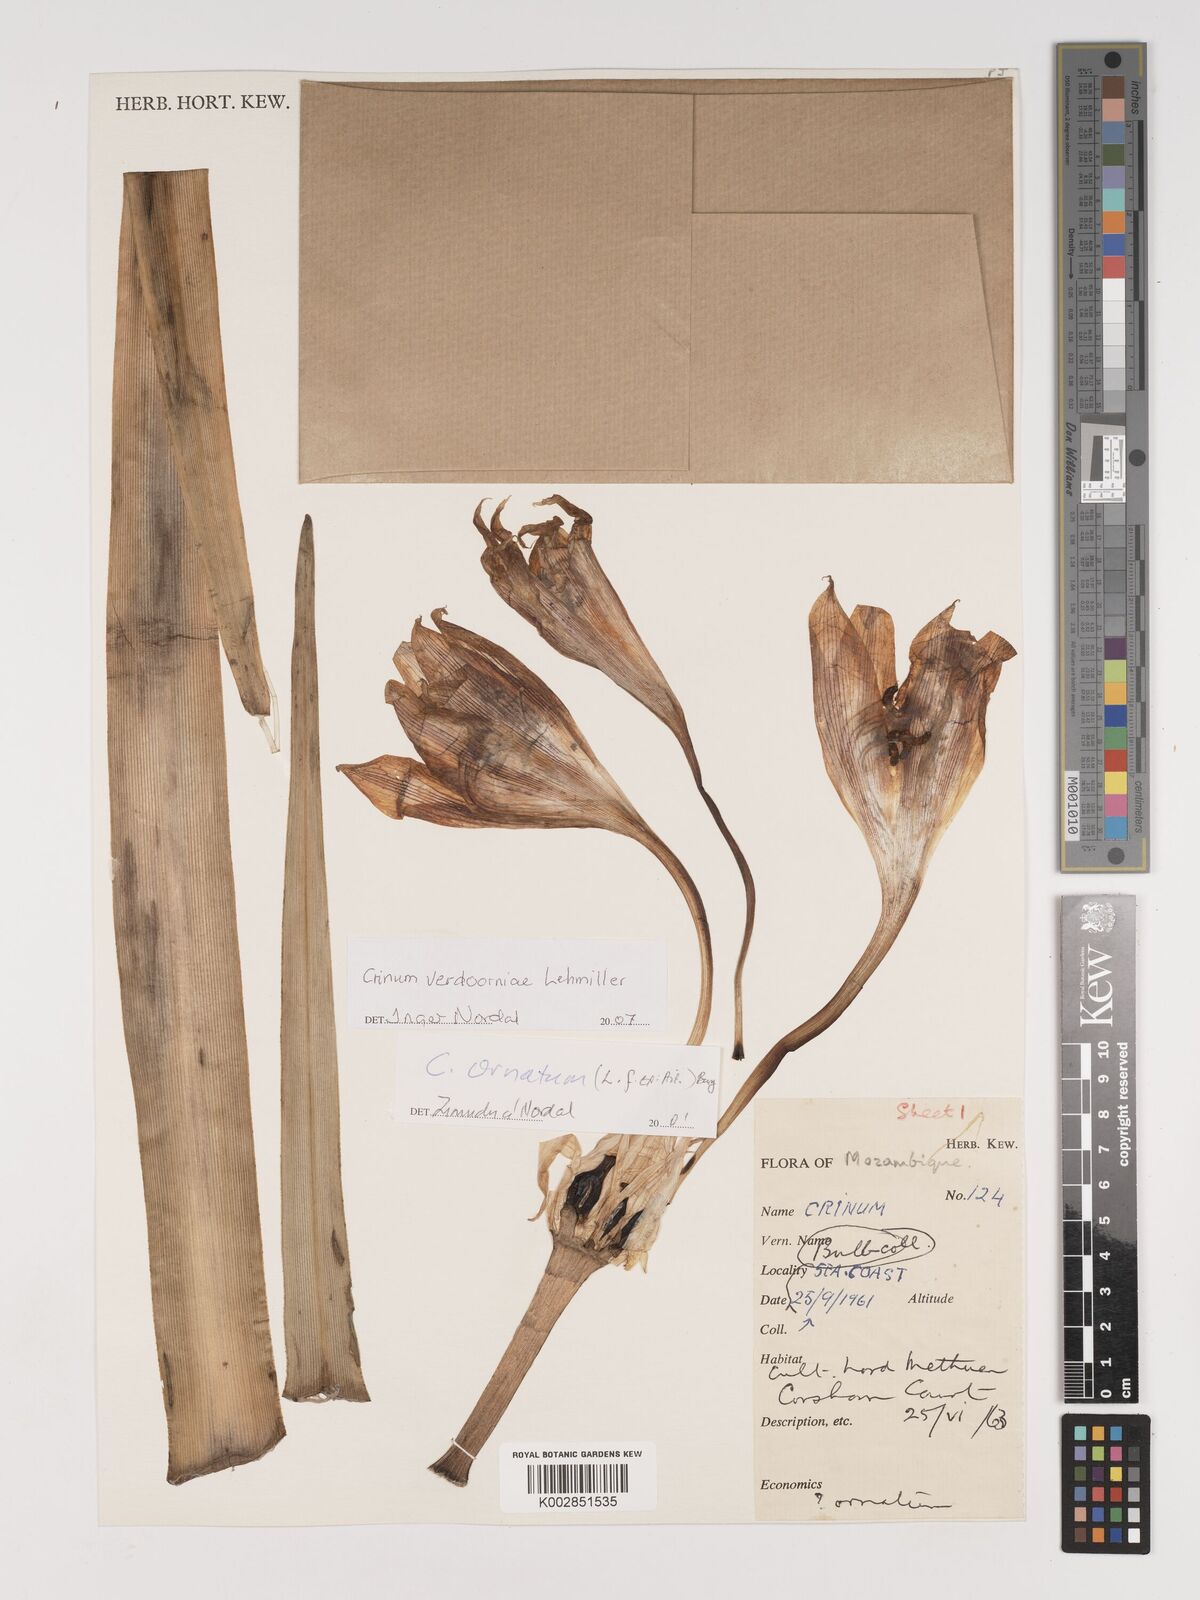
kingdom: Plantae
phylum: Tracheophyta
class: Liliopsida
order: Asparagales
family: Amaryllidaceae
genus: Crinum
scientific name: Crinum verdoorniae
